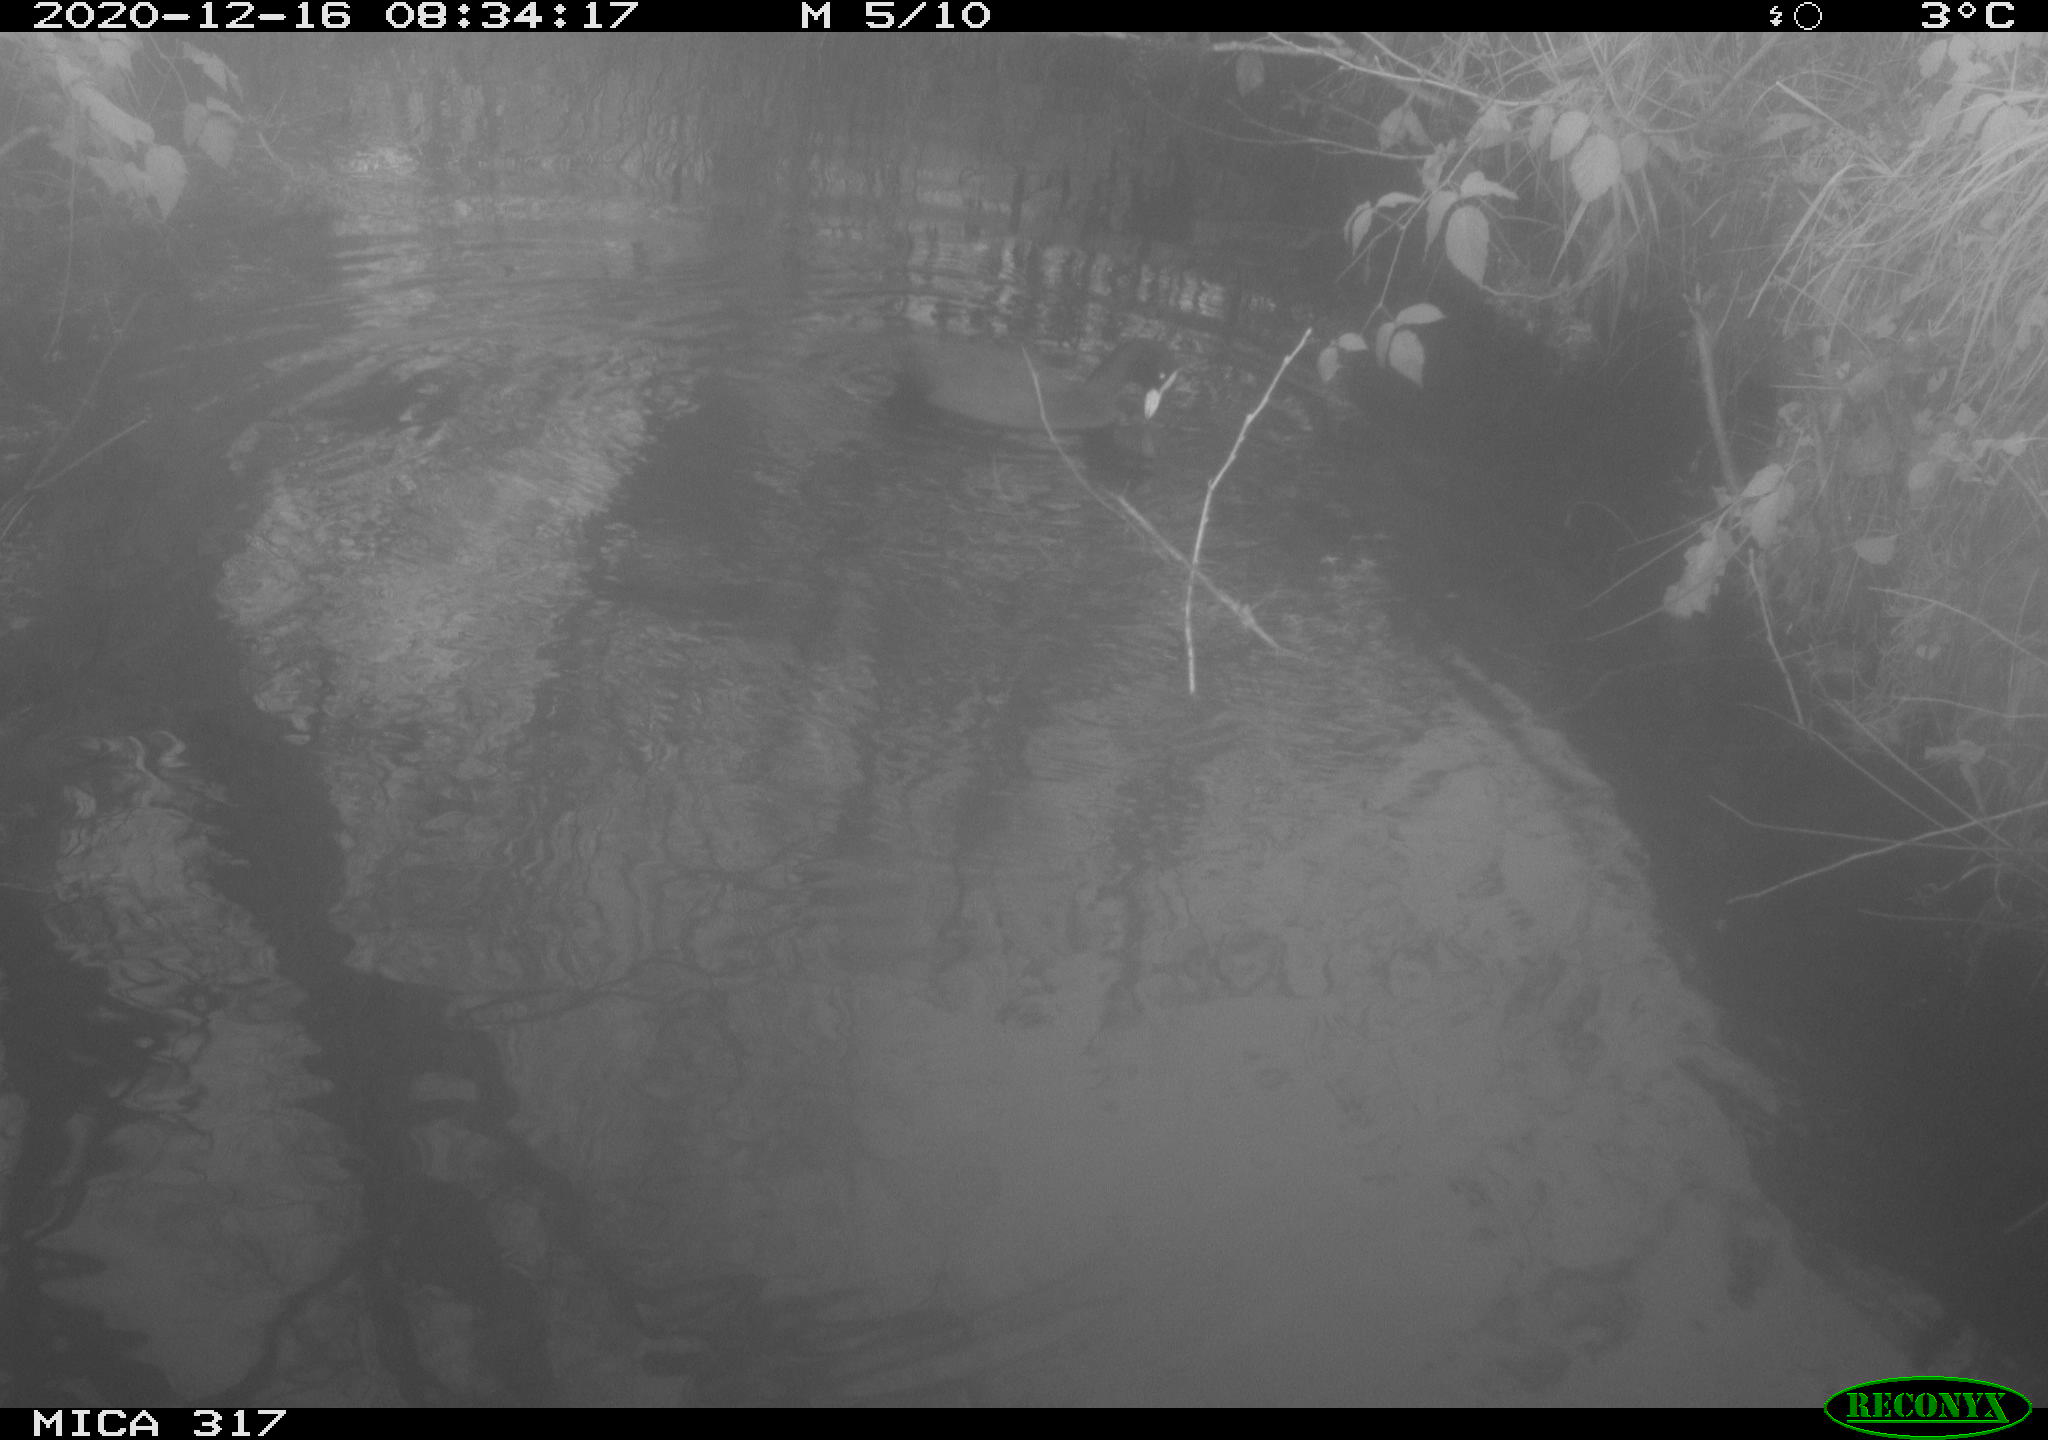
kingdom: Animalia
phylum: Chordata
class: Aves
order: Gruiformes
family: Rallidae
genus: Fulica
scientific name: Fulica atra
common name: Eurasian coot
